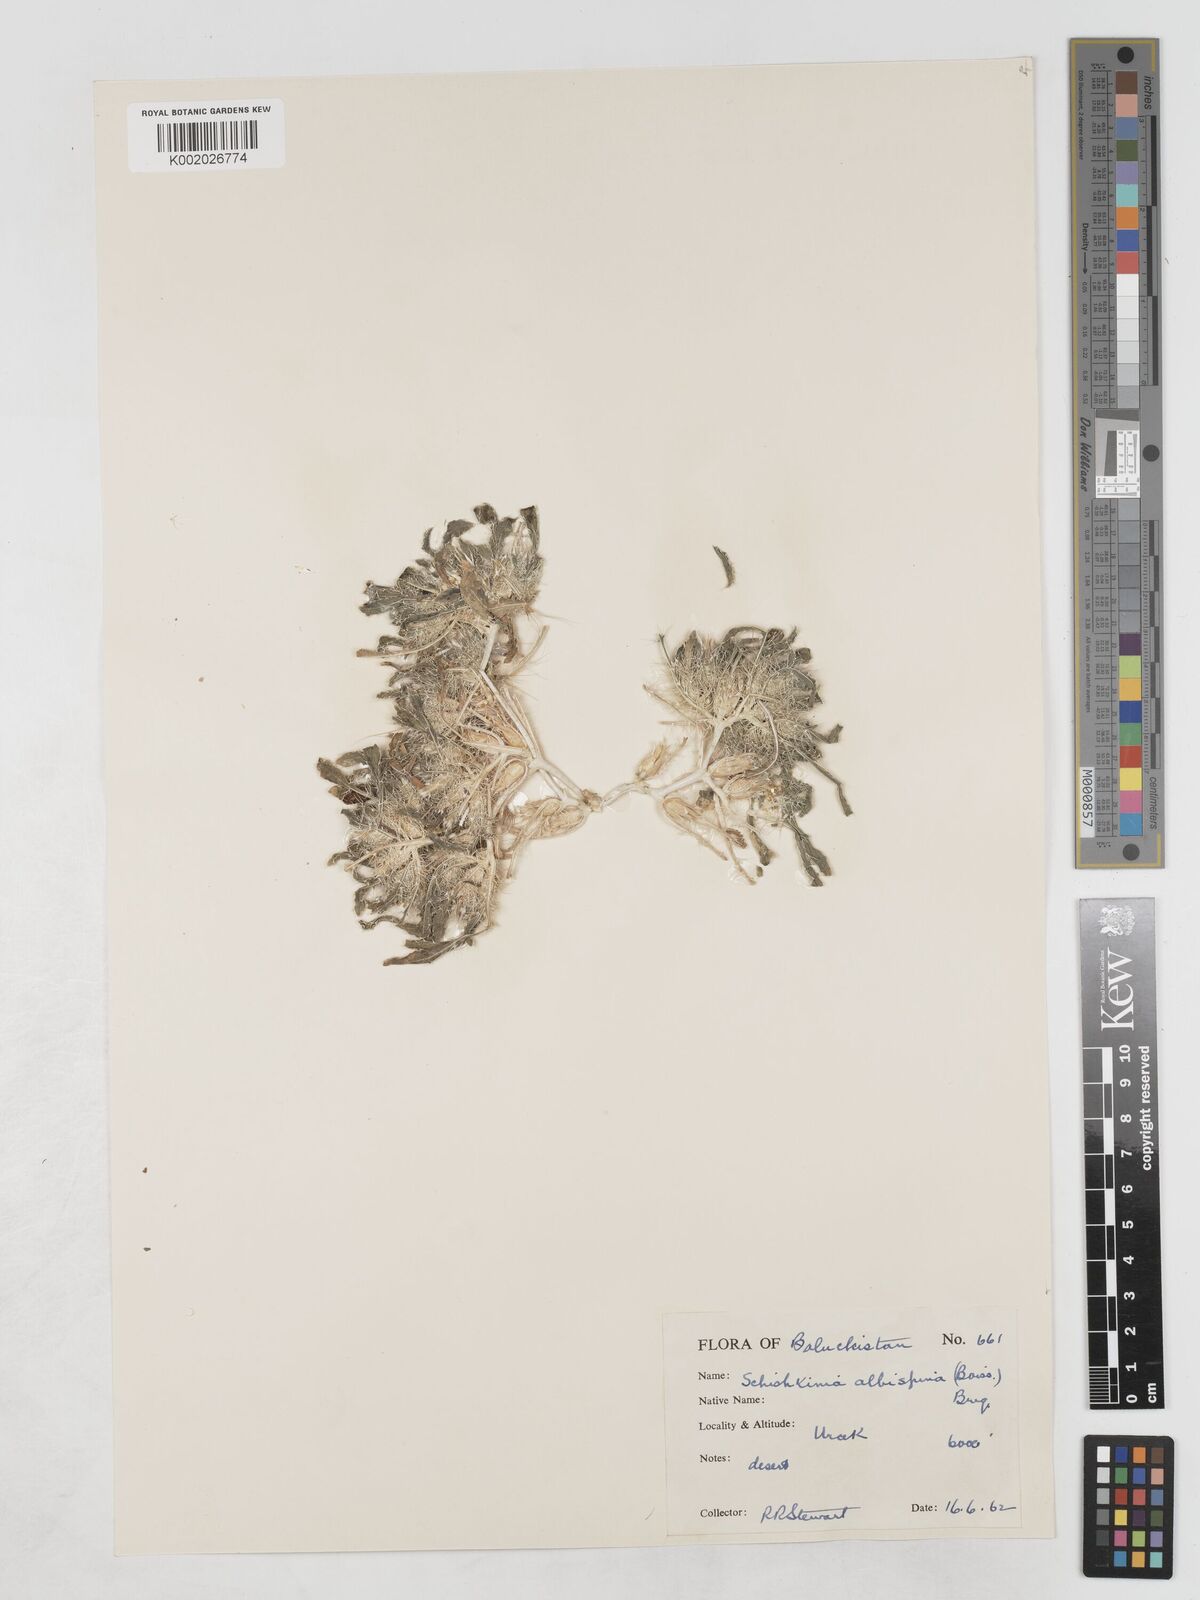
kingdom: Plantae
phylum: Tracheophyta
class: Magnoliopsida
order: Asterales
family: Asteraceae
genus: Schischkinia
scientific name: Schischkinia albispina
